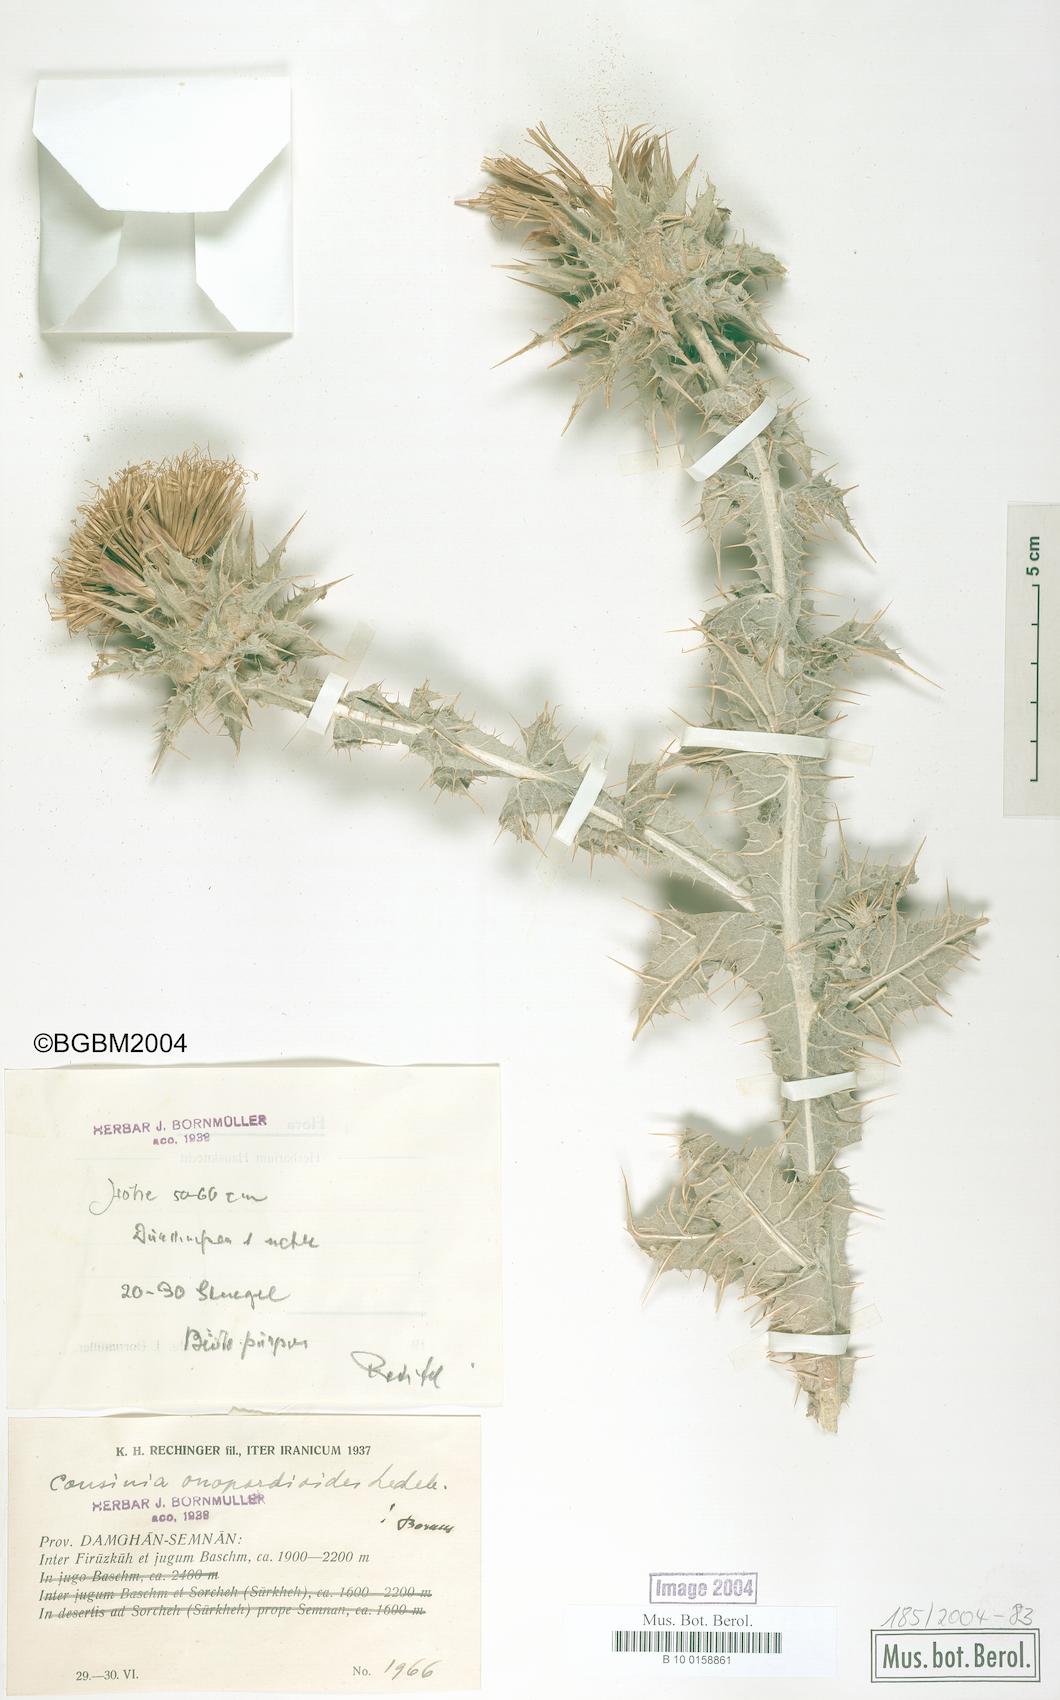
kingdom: Plantae
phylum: Tracheophyta
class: Magnoliopsida
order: Asterales
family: Asteraceae
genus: Cousinia
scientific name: Cousinia onopordioides
